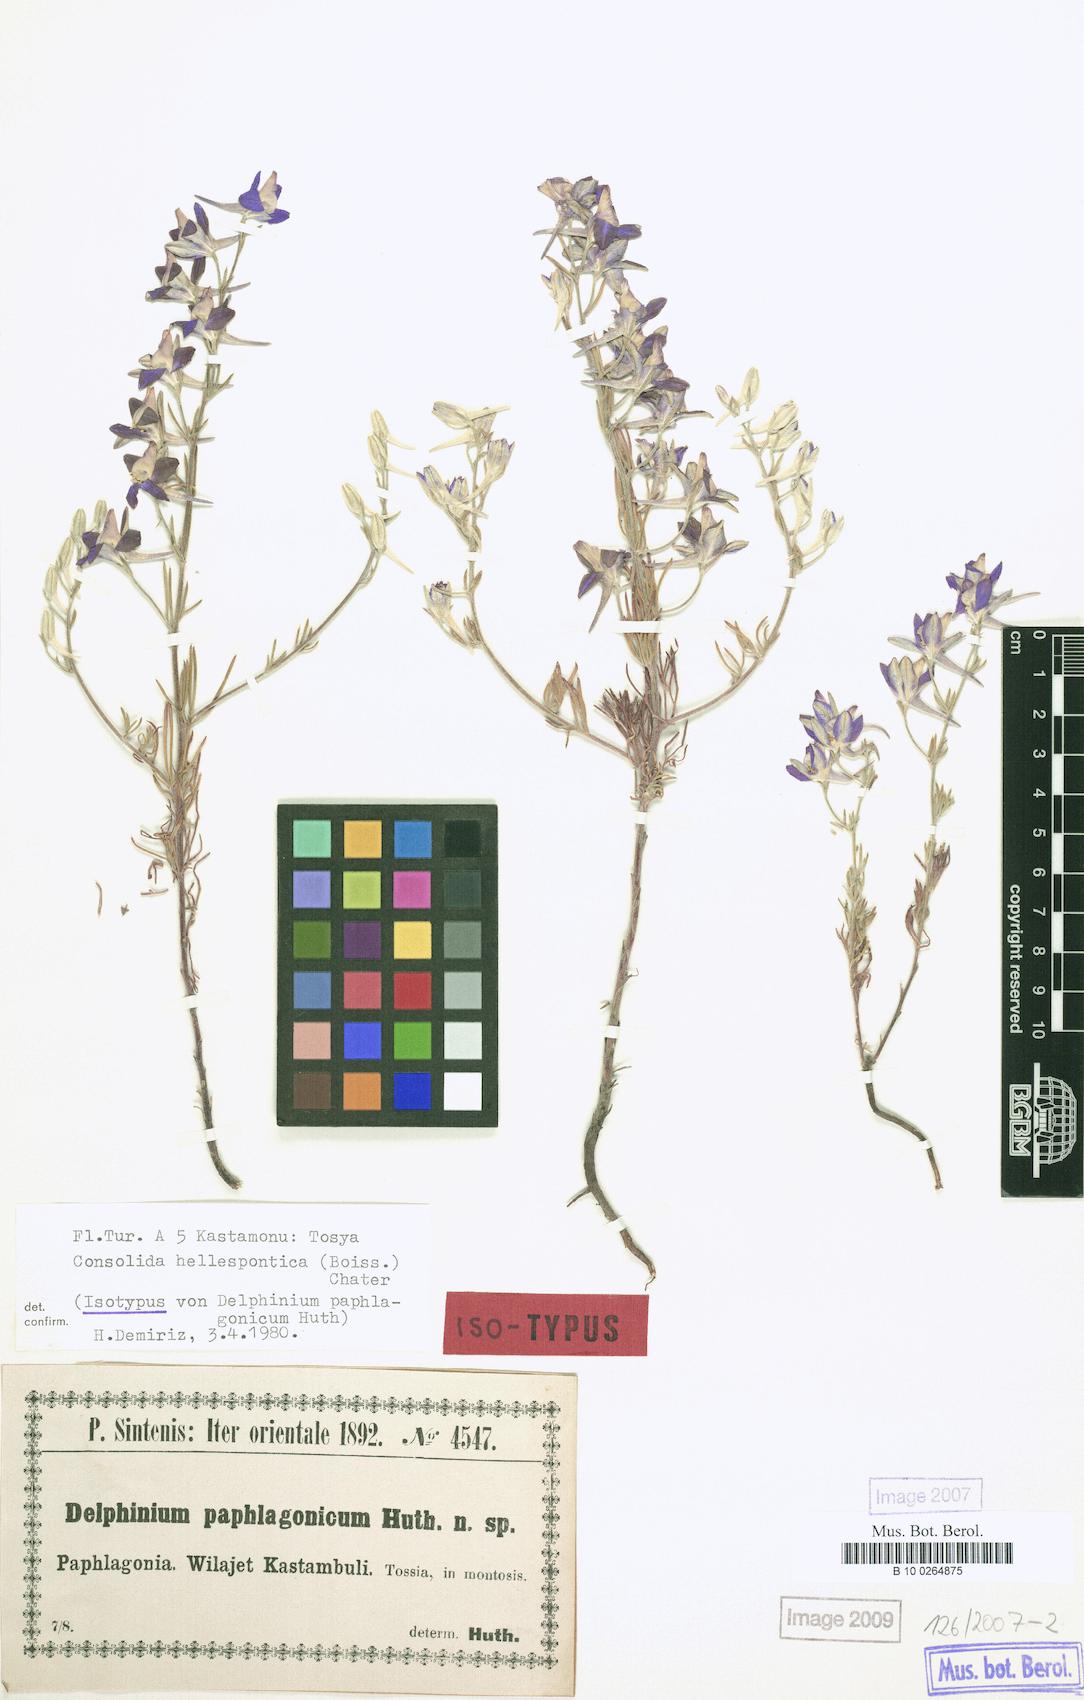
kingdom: Plantae
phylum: Tracheophyta
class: Magnoliopsida
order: Ranunculales
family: Ranunculaceae
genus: Delphinium
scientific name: Delphinium hellesponticum
